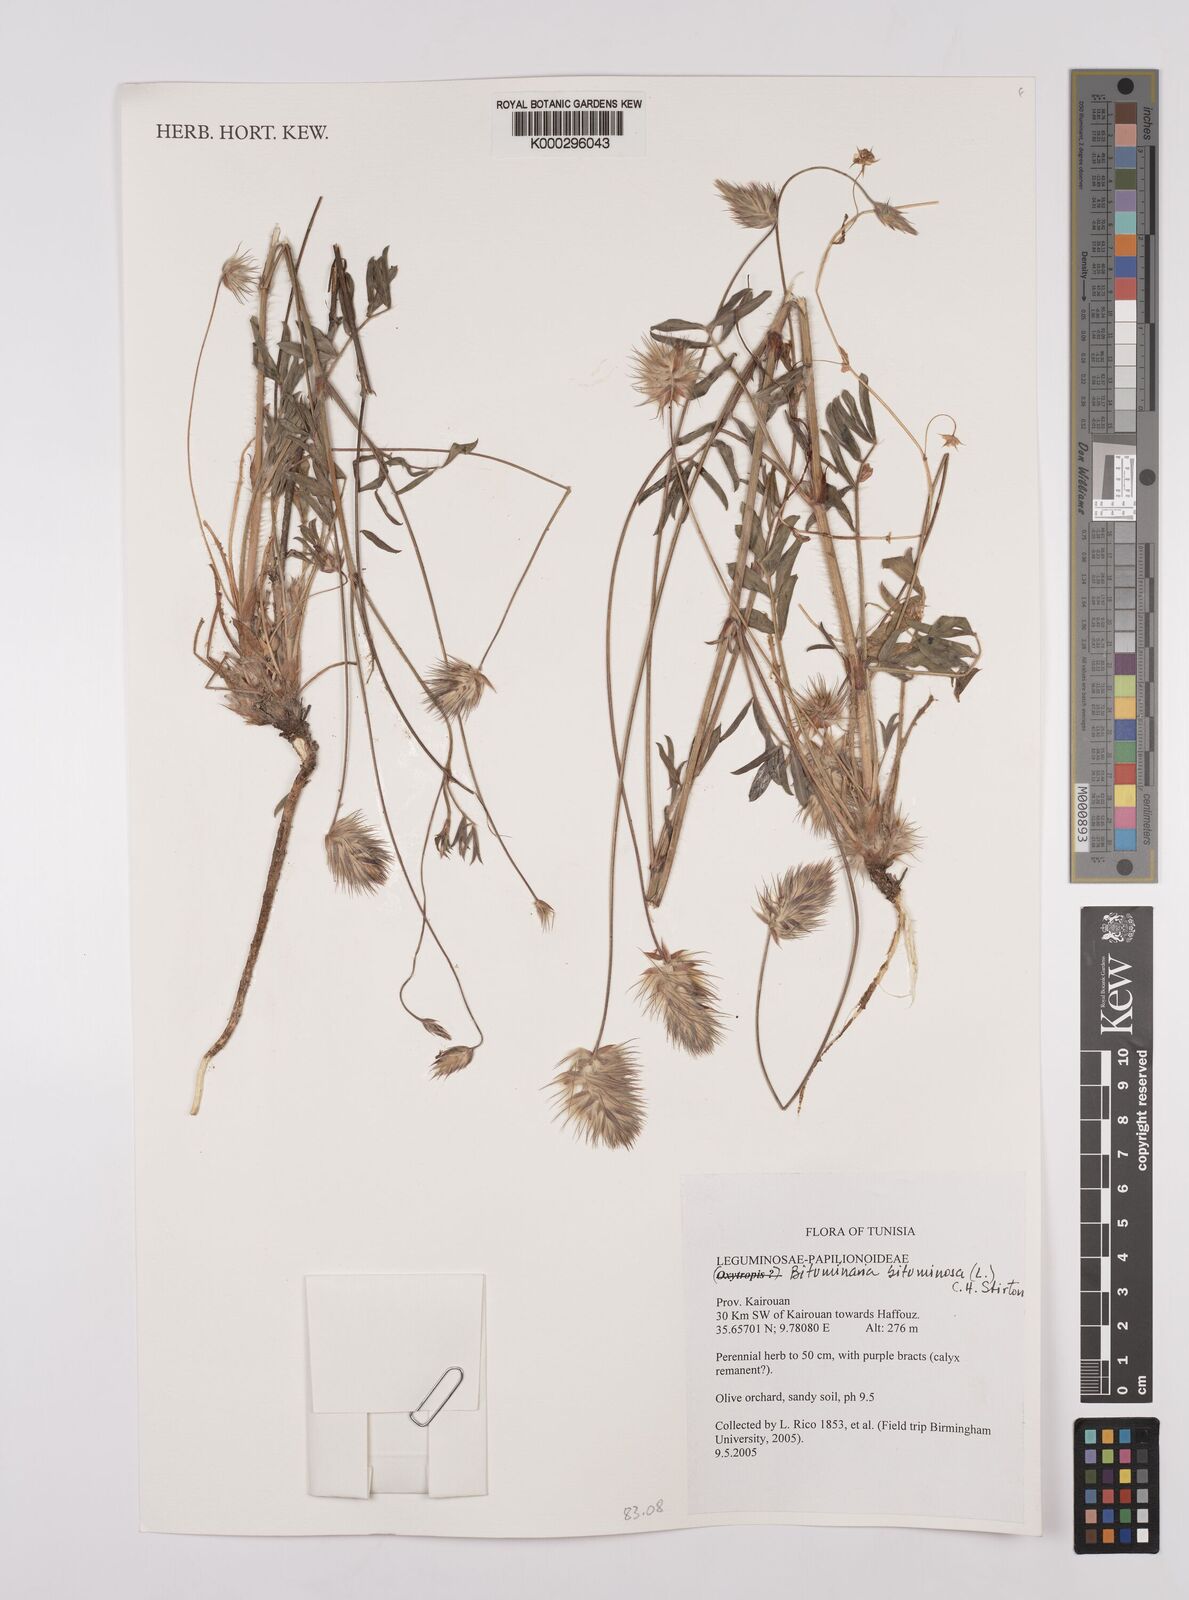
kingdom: Plantae
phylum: Tracheophyta
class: Magnoliopsida
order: Fabales
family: Fabaceae
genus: Bituminaria
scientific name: Bituminaria bituminosa
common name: Arabian pea
